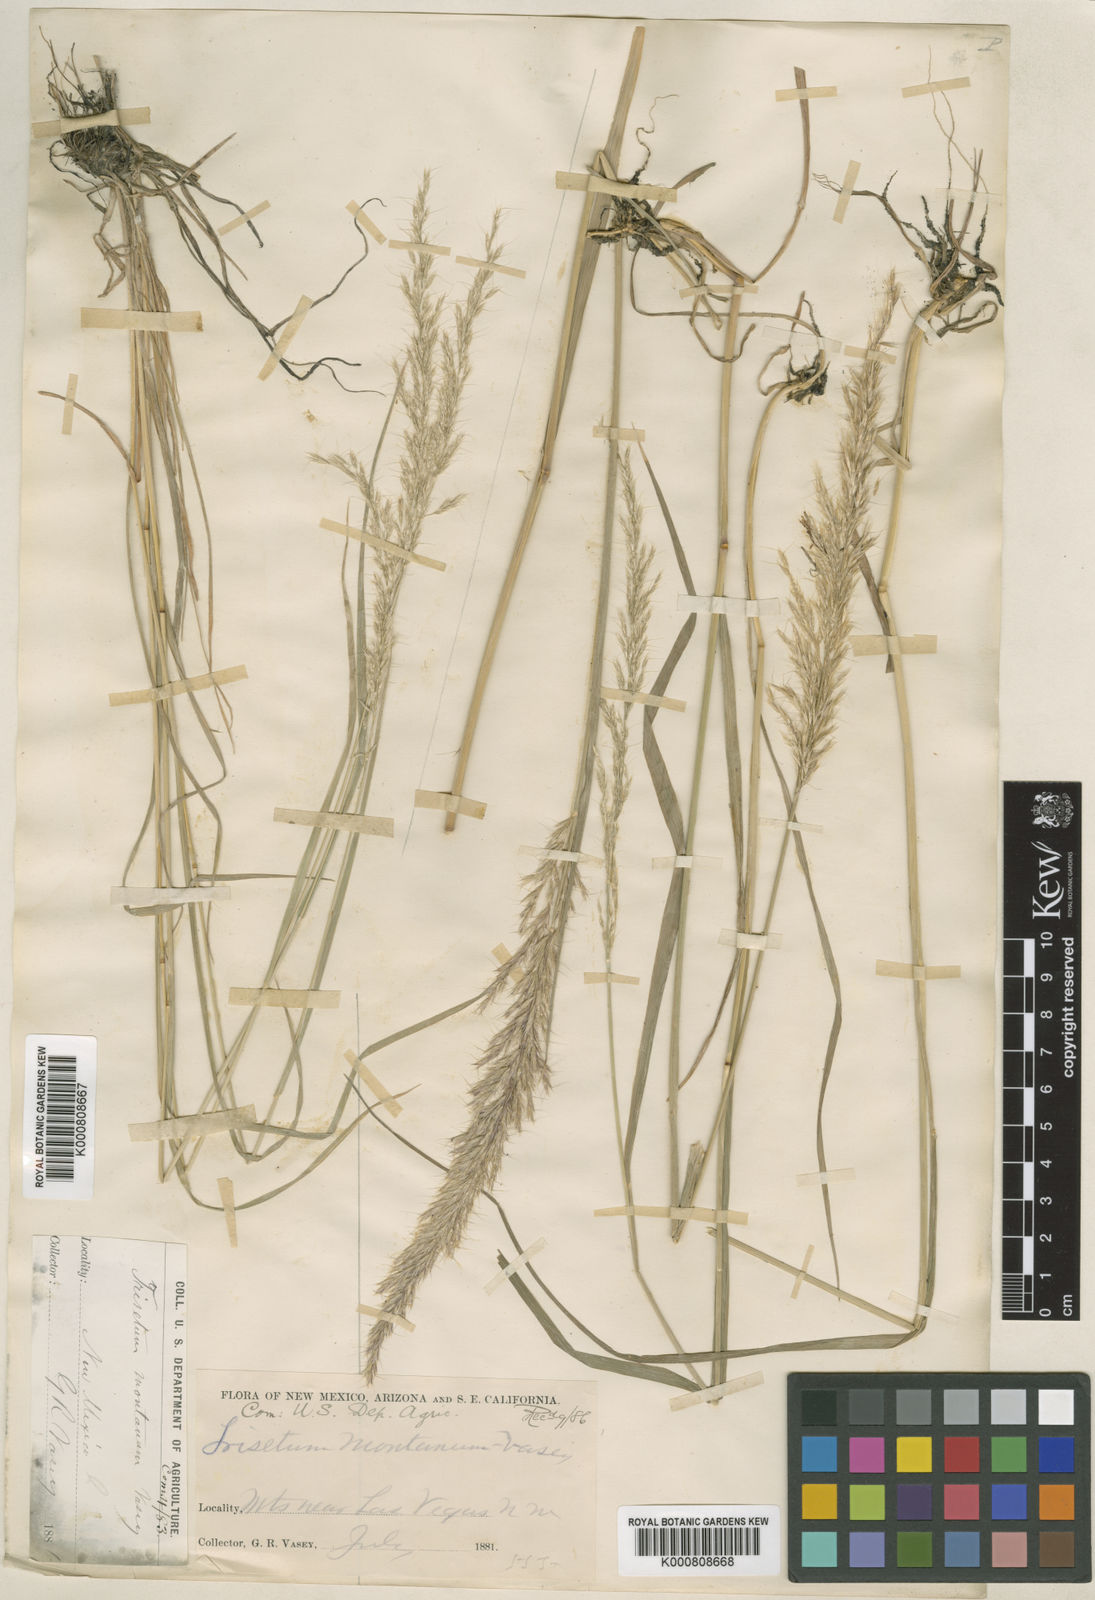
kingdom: Plantae
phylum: Tracheophyta
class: Liliopsida
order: Poales
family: Poaceae
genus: Koeleria
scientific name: Koeleria vaseyi
